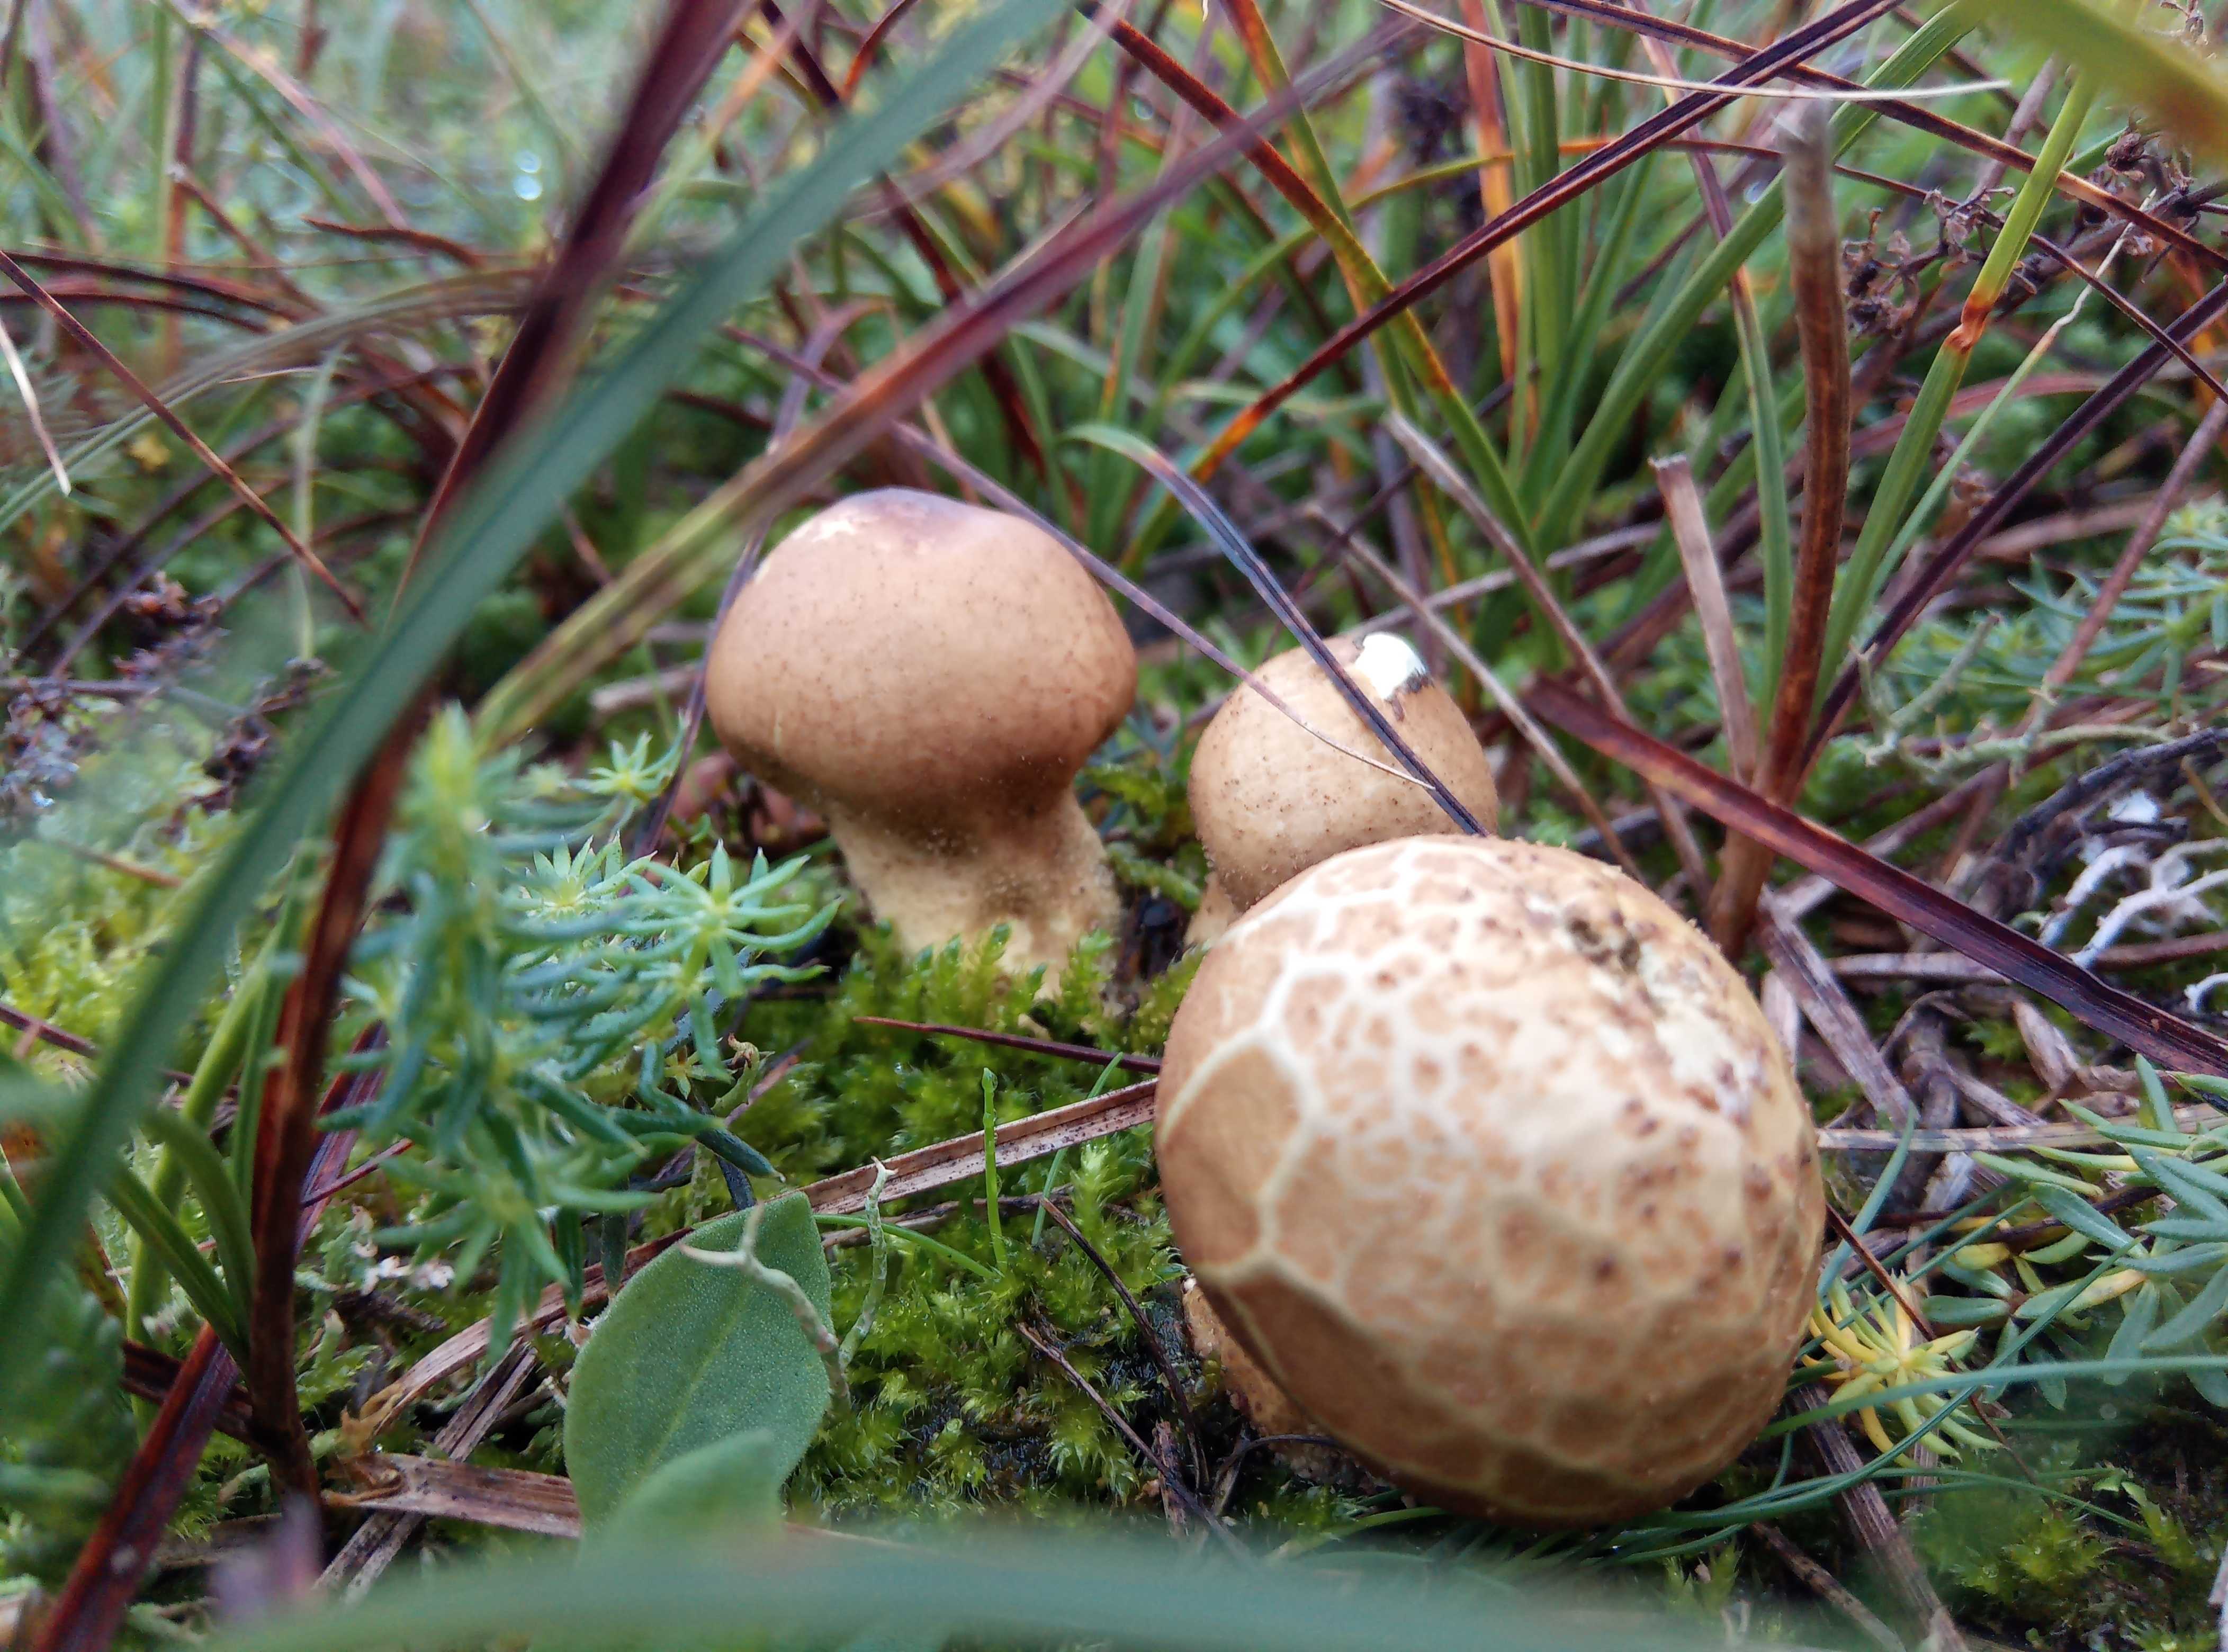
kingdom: Fungi
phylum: Basidiomycota
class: Agaricomycetes
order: Agaricales
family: Lycoperdaceae
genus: Lycoperdon
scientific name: Lycoperdon lividum
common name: mark-støvbold
